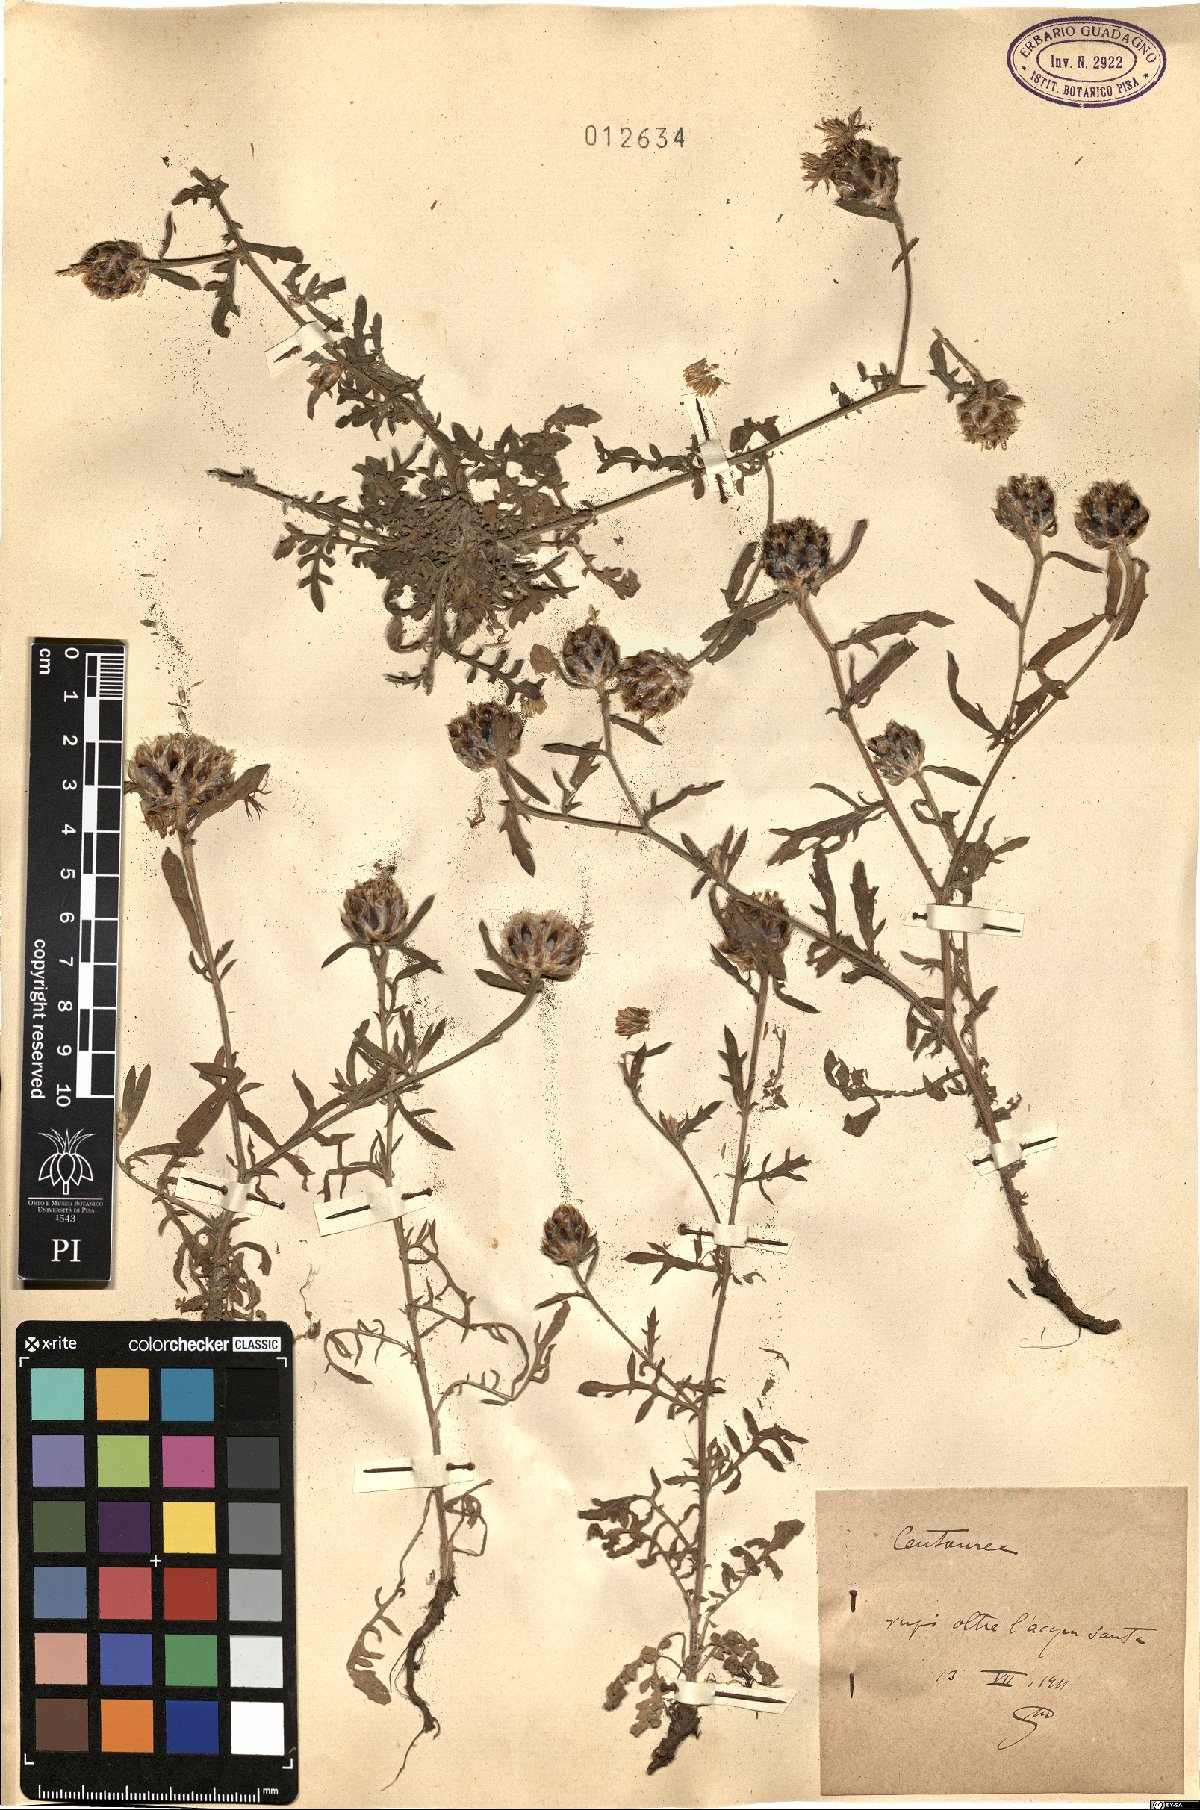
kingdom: Plantae
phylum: Tracheophyta
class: Magnoliopsida
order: Asterales
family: Asteraceae
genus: Centaurea
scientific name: Centaurea
